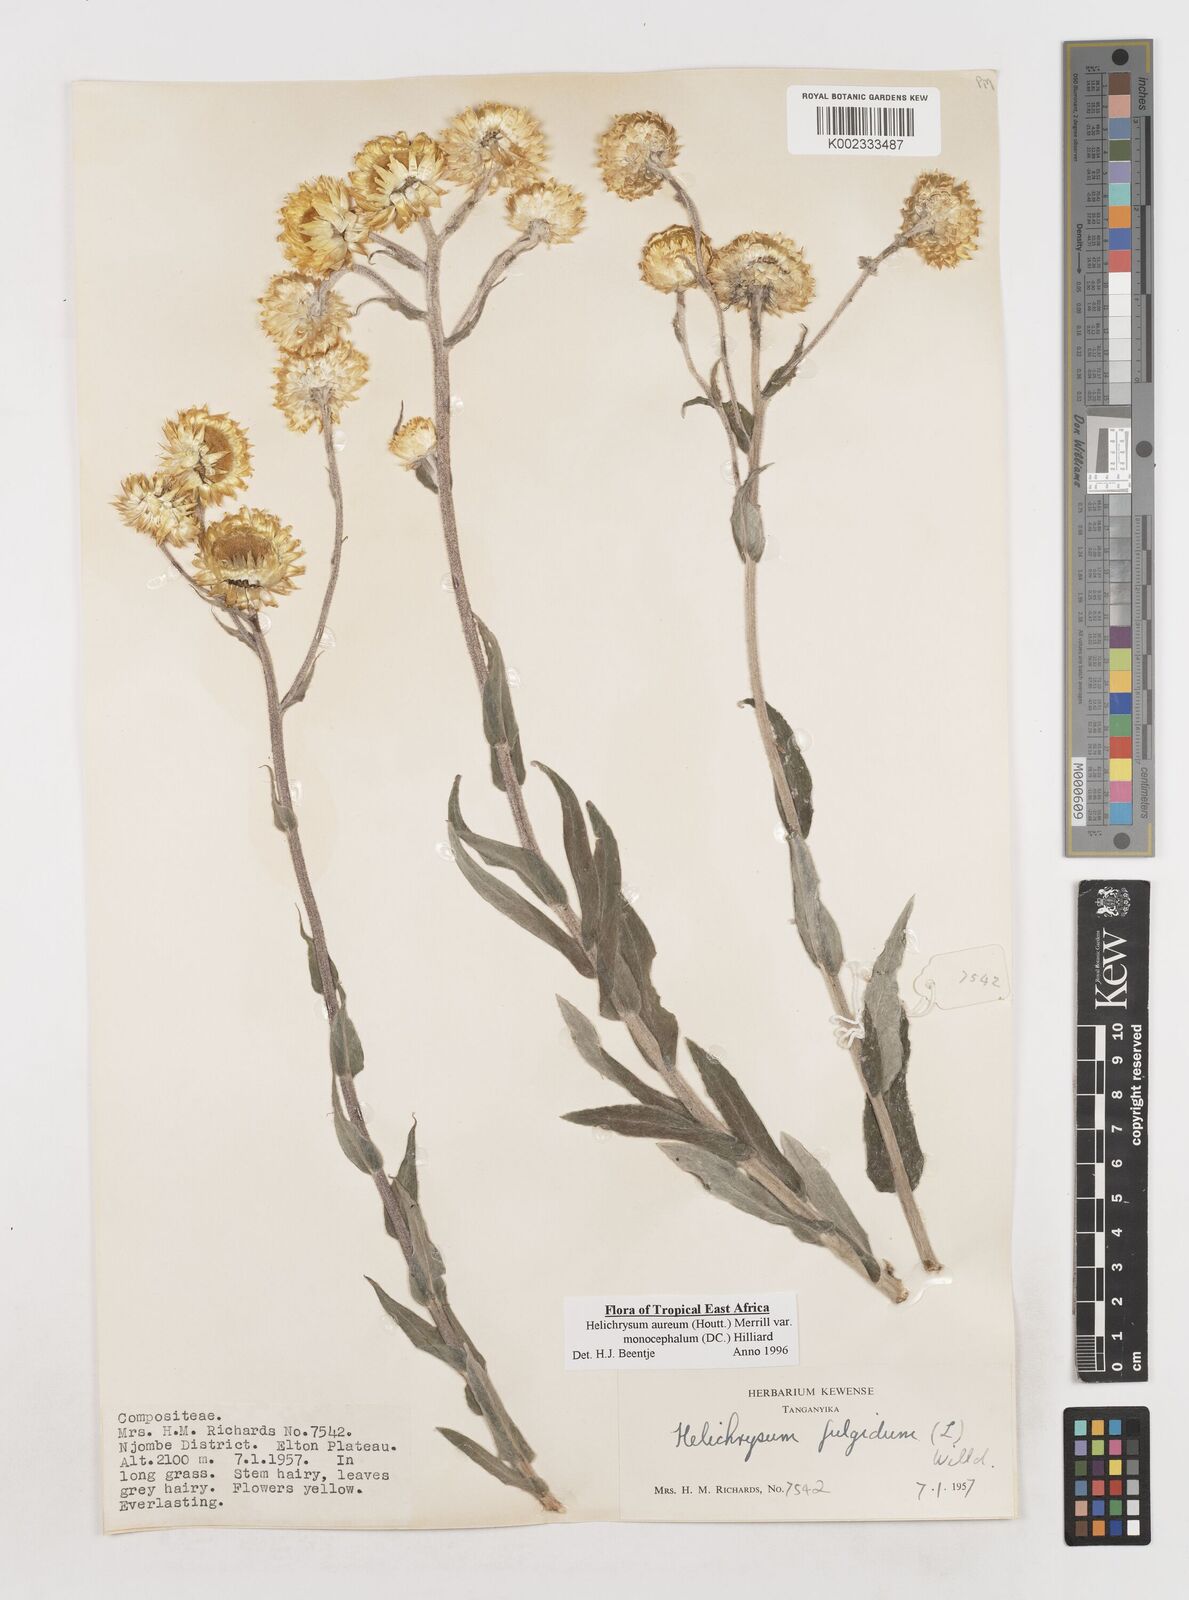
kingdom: Plantae
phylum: Tracheophyta
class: Magnoliopsida
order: Asterales
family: Asteraceae
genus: Helichrysum
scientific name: Helichrysum aureum
